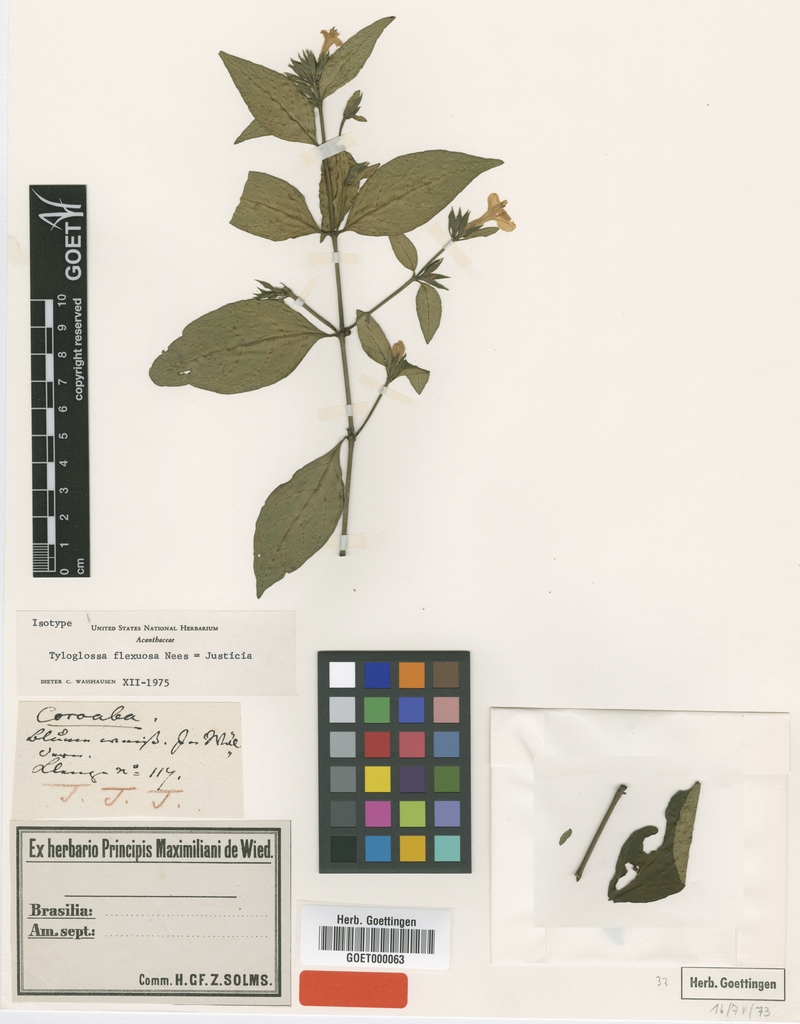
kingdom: Plantae
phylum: Tracheophyta
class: Magnoliopsida
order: Lamiales
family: Acanthaceae
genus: Poikilacanthus
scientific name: Poikilacanthus glandulosus
